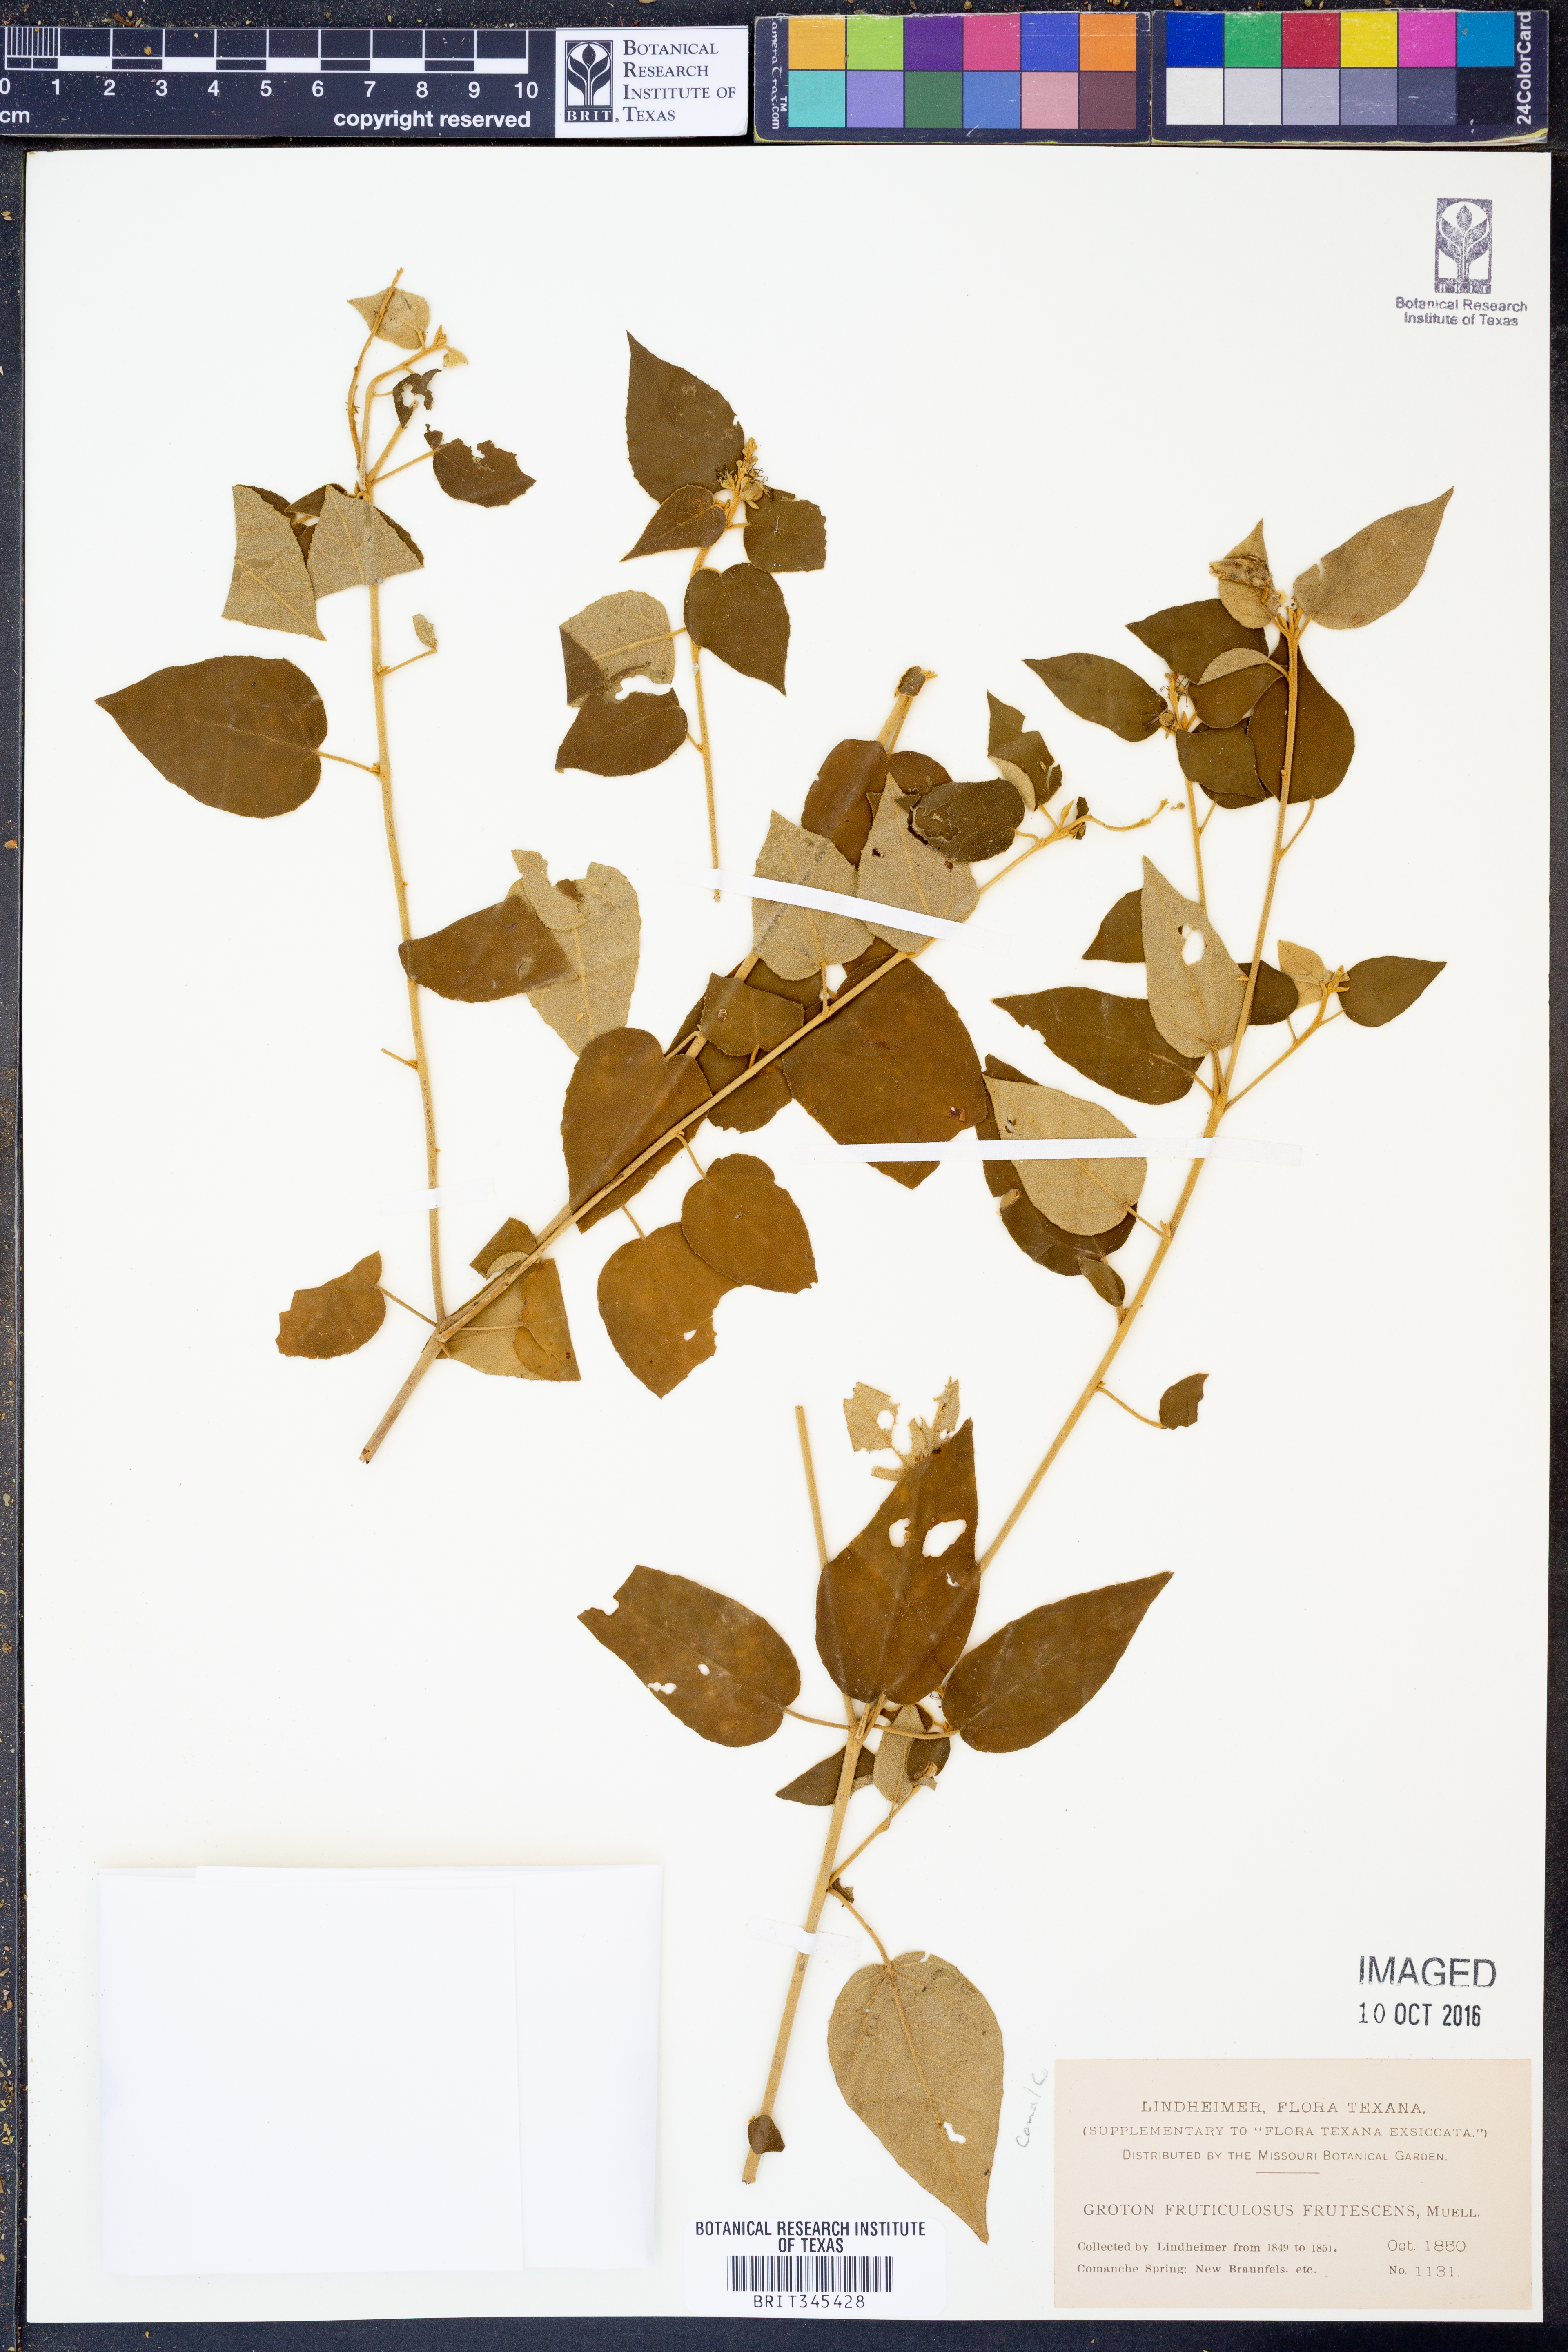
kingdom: Plantae
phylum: Tracheophyta
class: Magnoliopsida
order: Malpighiales
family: Euphorbiaceae
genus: Croton
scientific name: Croton fruticulosus
